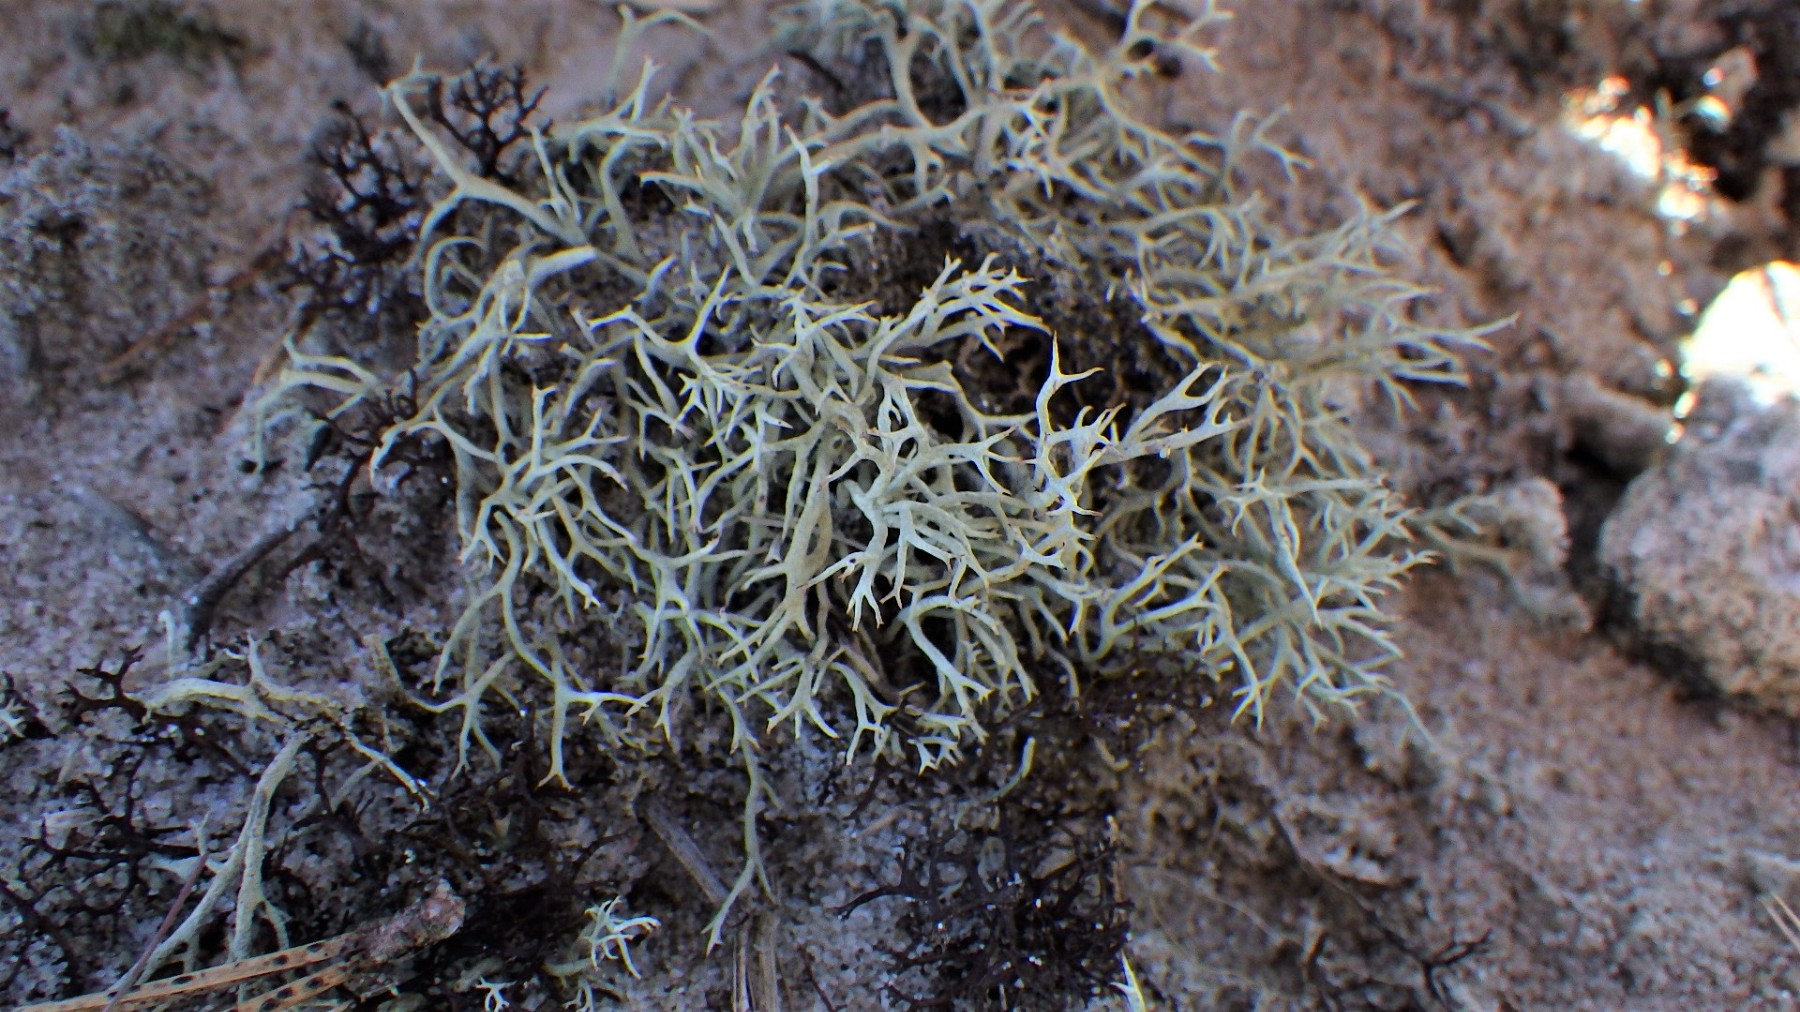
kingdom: Fungi
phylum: Ascomycota
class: Lecanoromycetes
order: Lecanorales
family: Cladoniaceae
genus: Cladonia
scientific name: Cladonia zopfii
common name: klit-bægerlav
